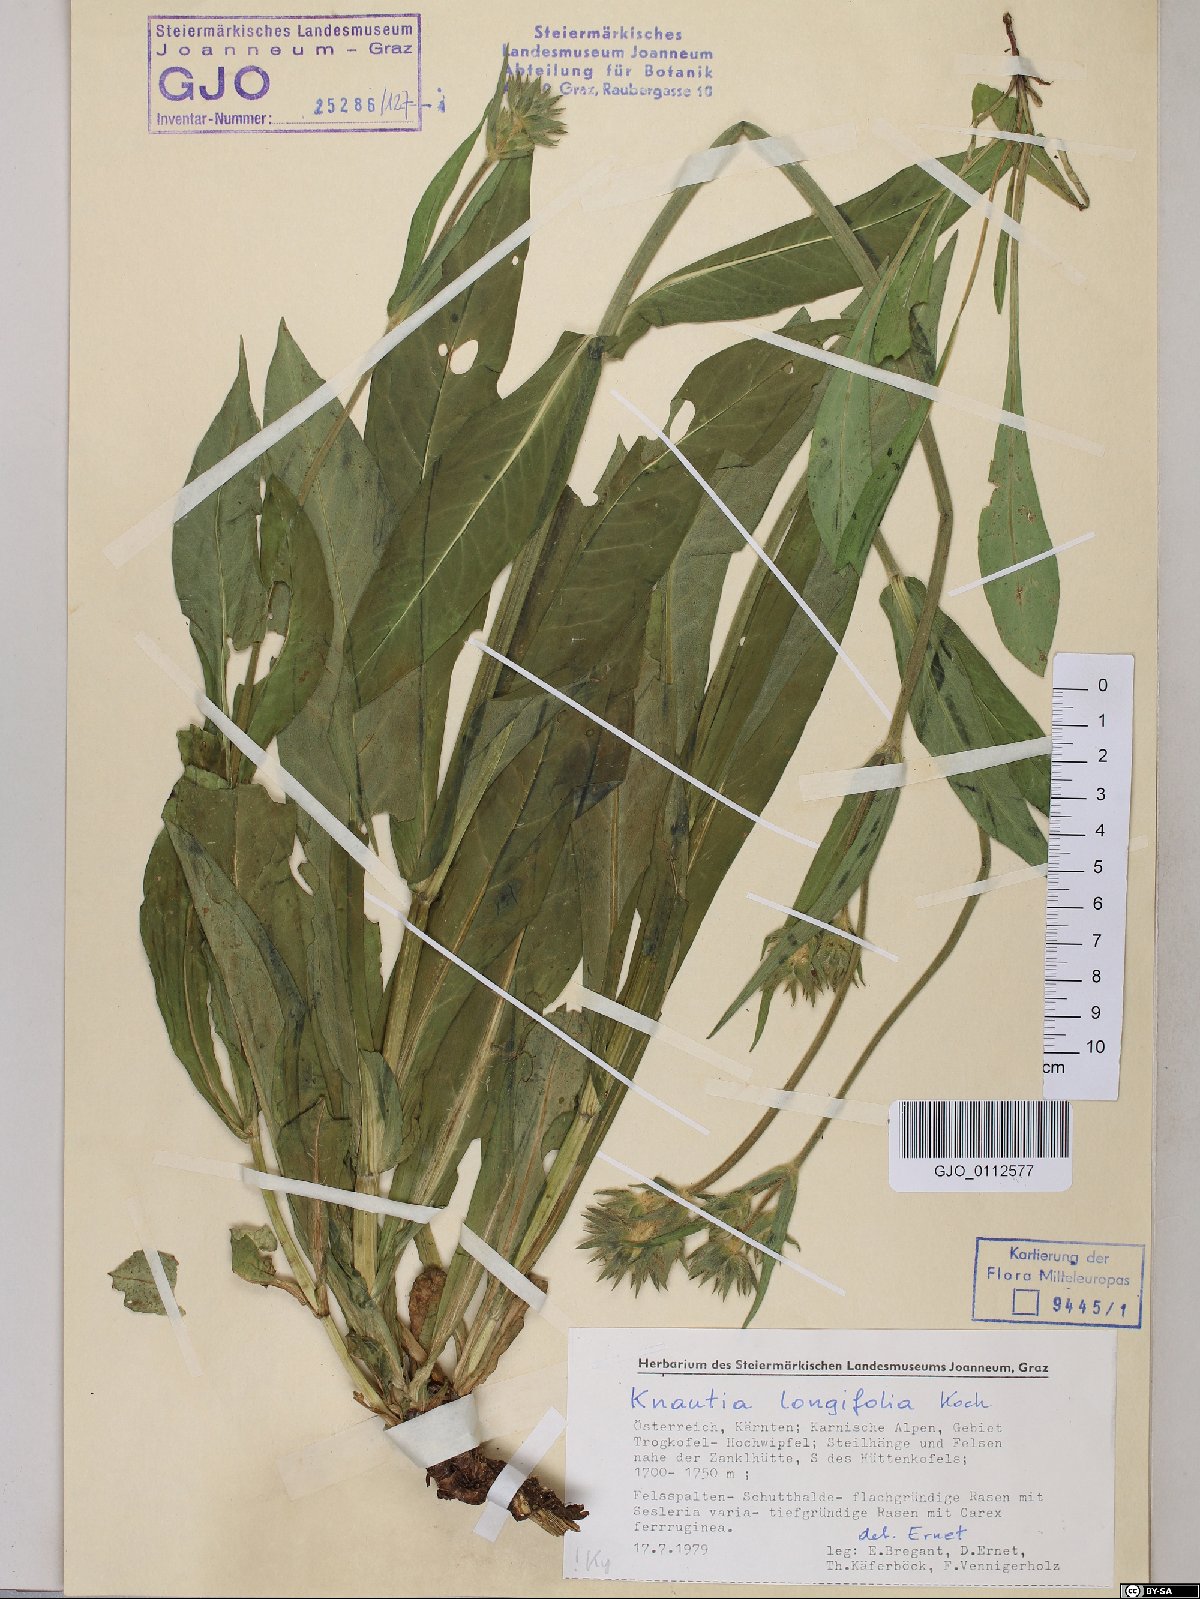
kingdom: Plantae
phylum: Tracheophyta
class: Magnoliopsida
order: Dipsacales
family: Caprifoliaceae
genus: Knautia
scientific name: Knautia longifolia
